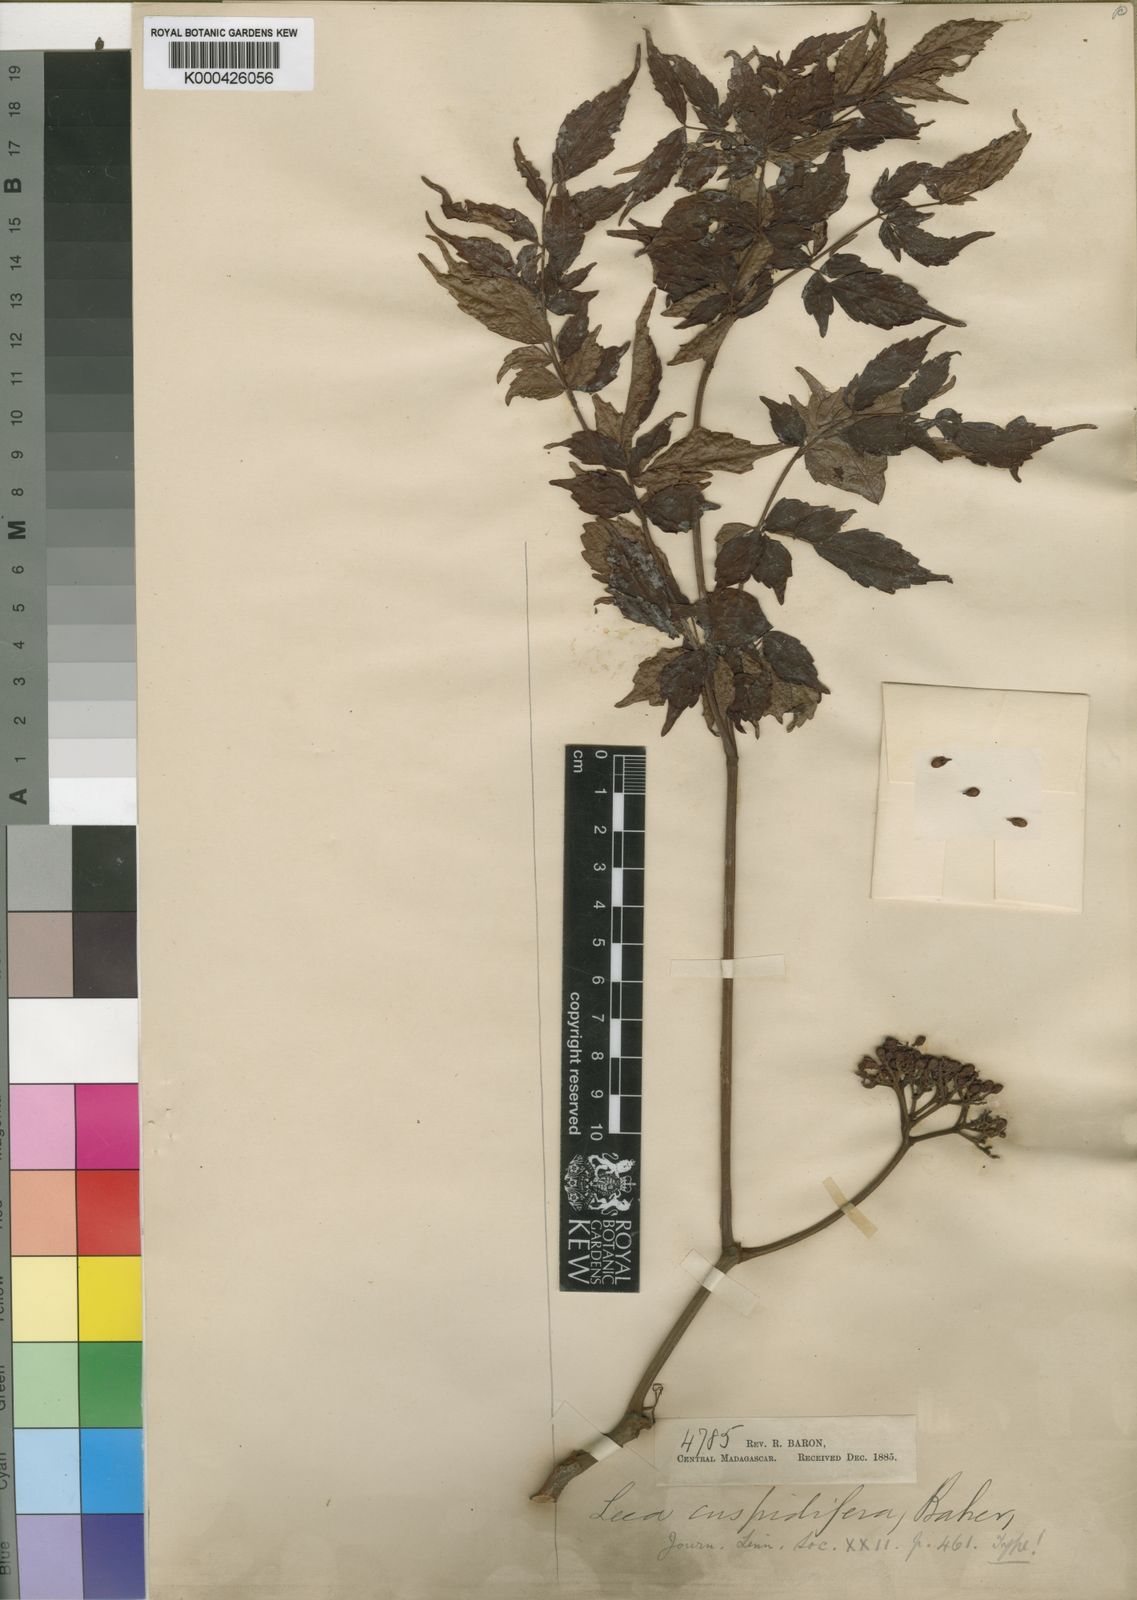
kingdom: Plantae
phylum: Tracheophyta
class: Magnoliopsida
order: Vitales
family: Vitaceae
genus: Leea
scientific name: Leea guineensis
